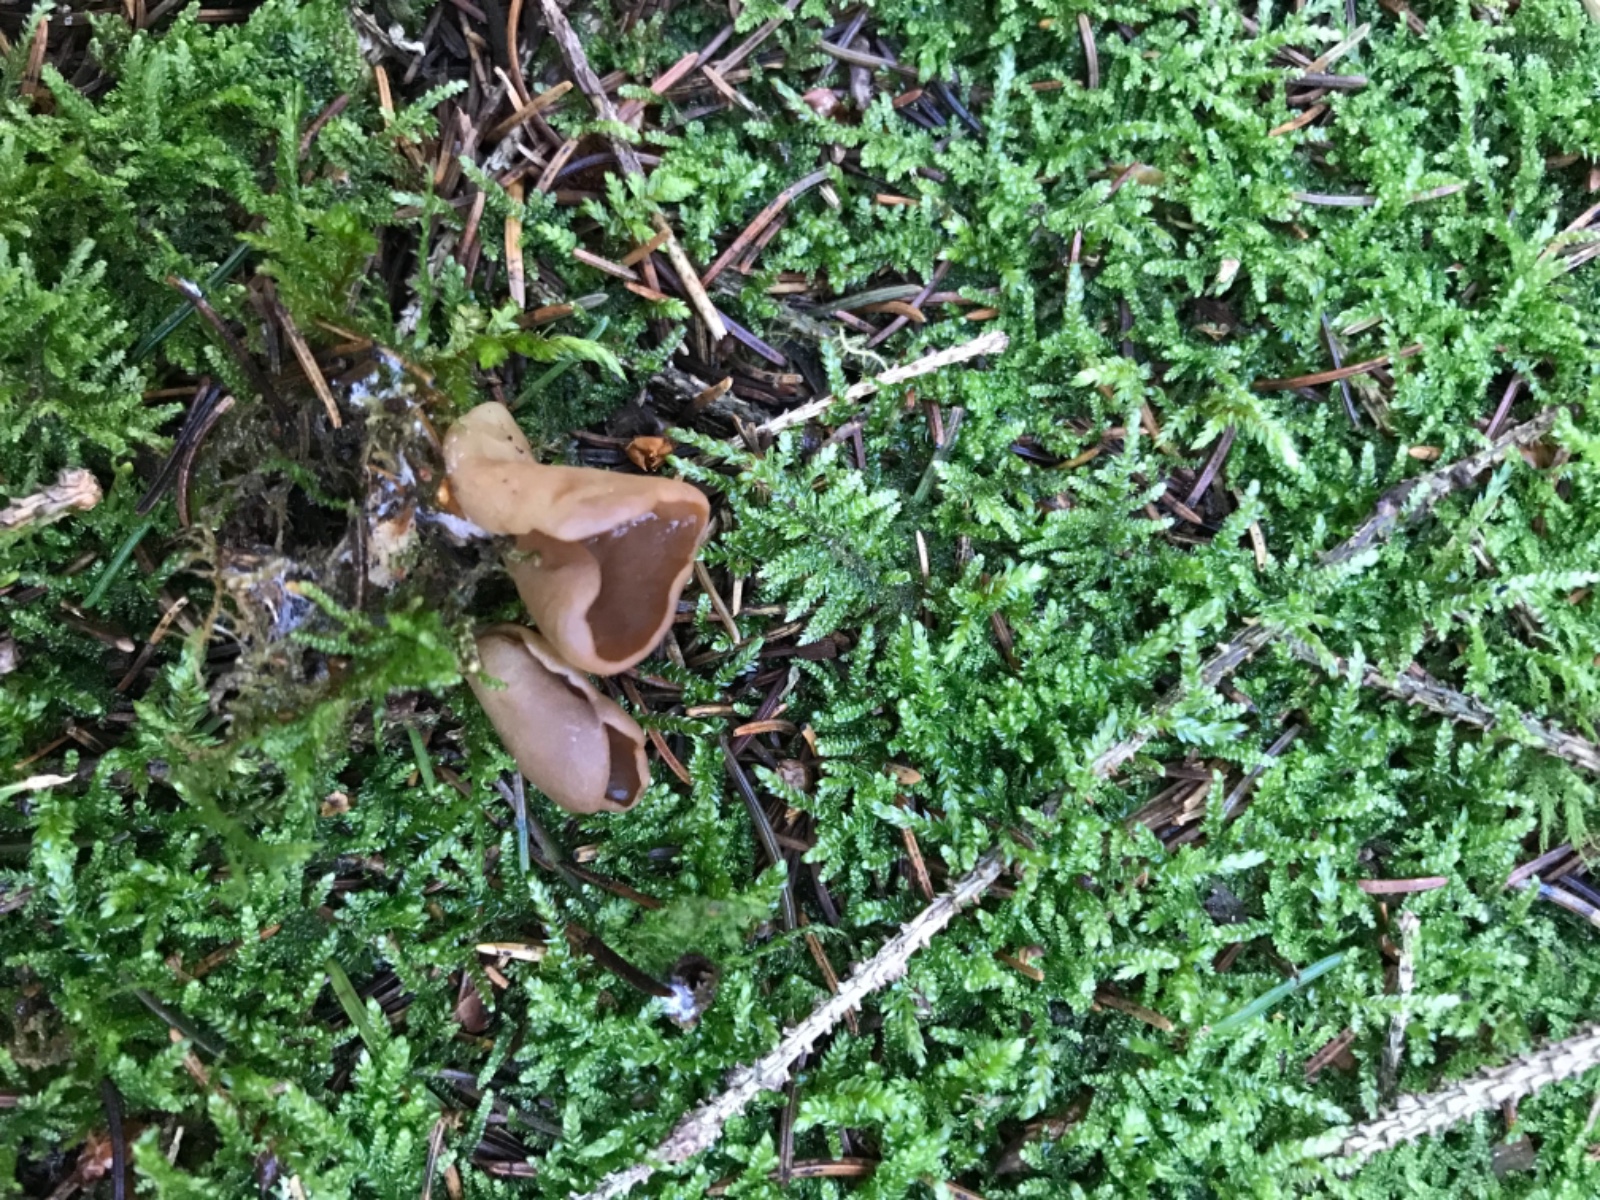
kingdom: Fungi
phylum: Ascomycota
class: Pezizomycetes
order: Pezizales
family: Otideaceae
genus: Otidea
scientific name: Otidea leporina
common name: hare-ørebæger
